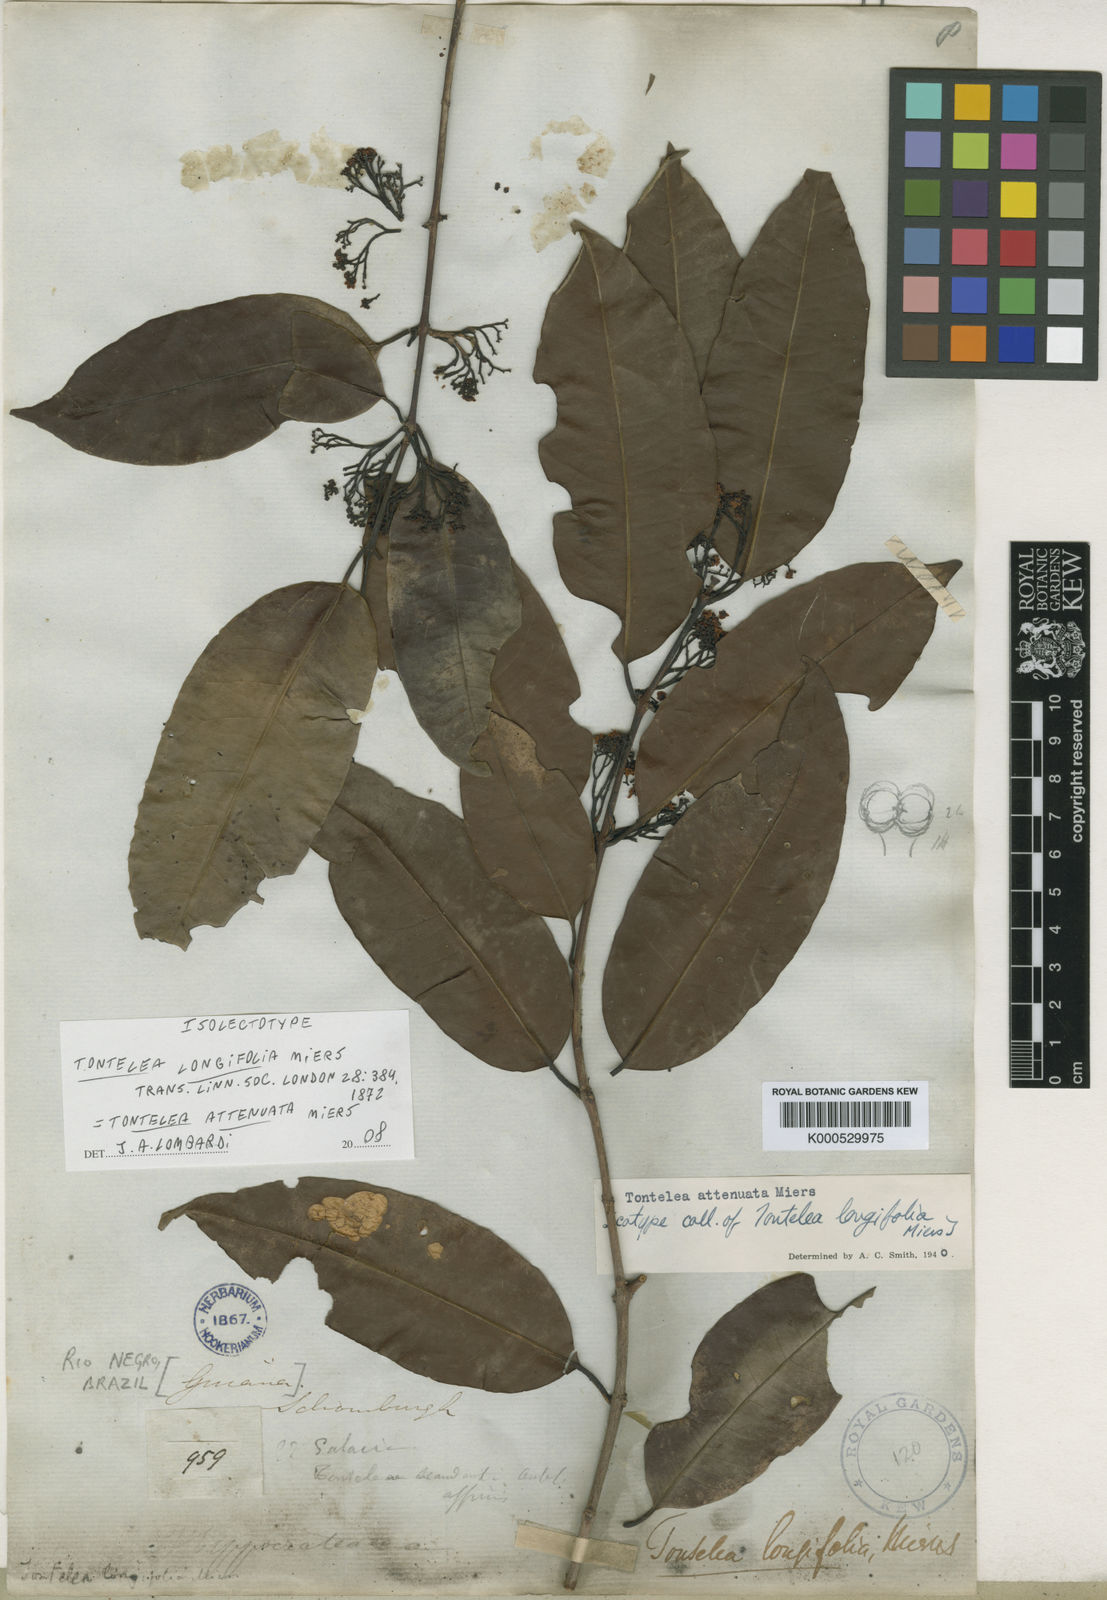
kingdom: Plantae
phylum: Tracheophyta
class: Magnoliopsida
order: Celastrales
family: Celastraceae
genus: Tontelea
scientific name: Tontelea attenuata
